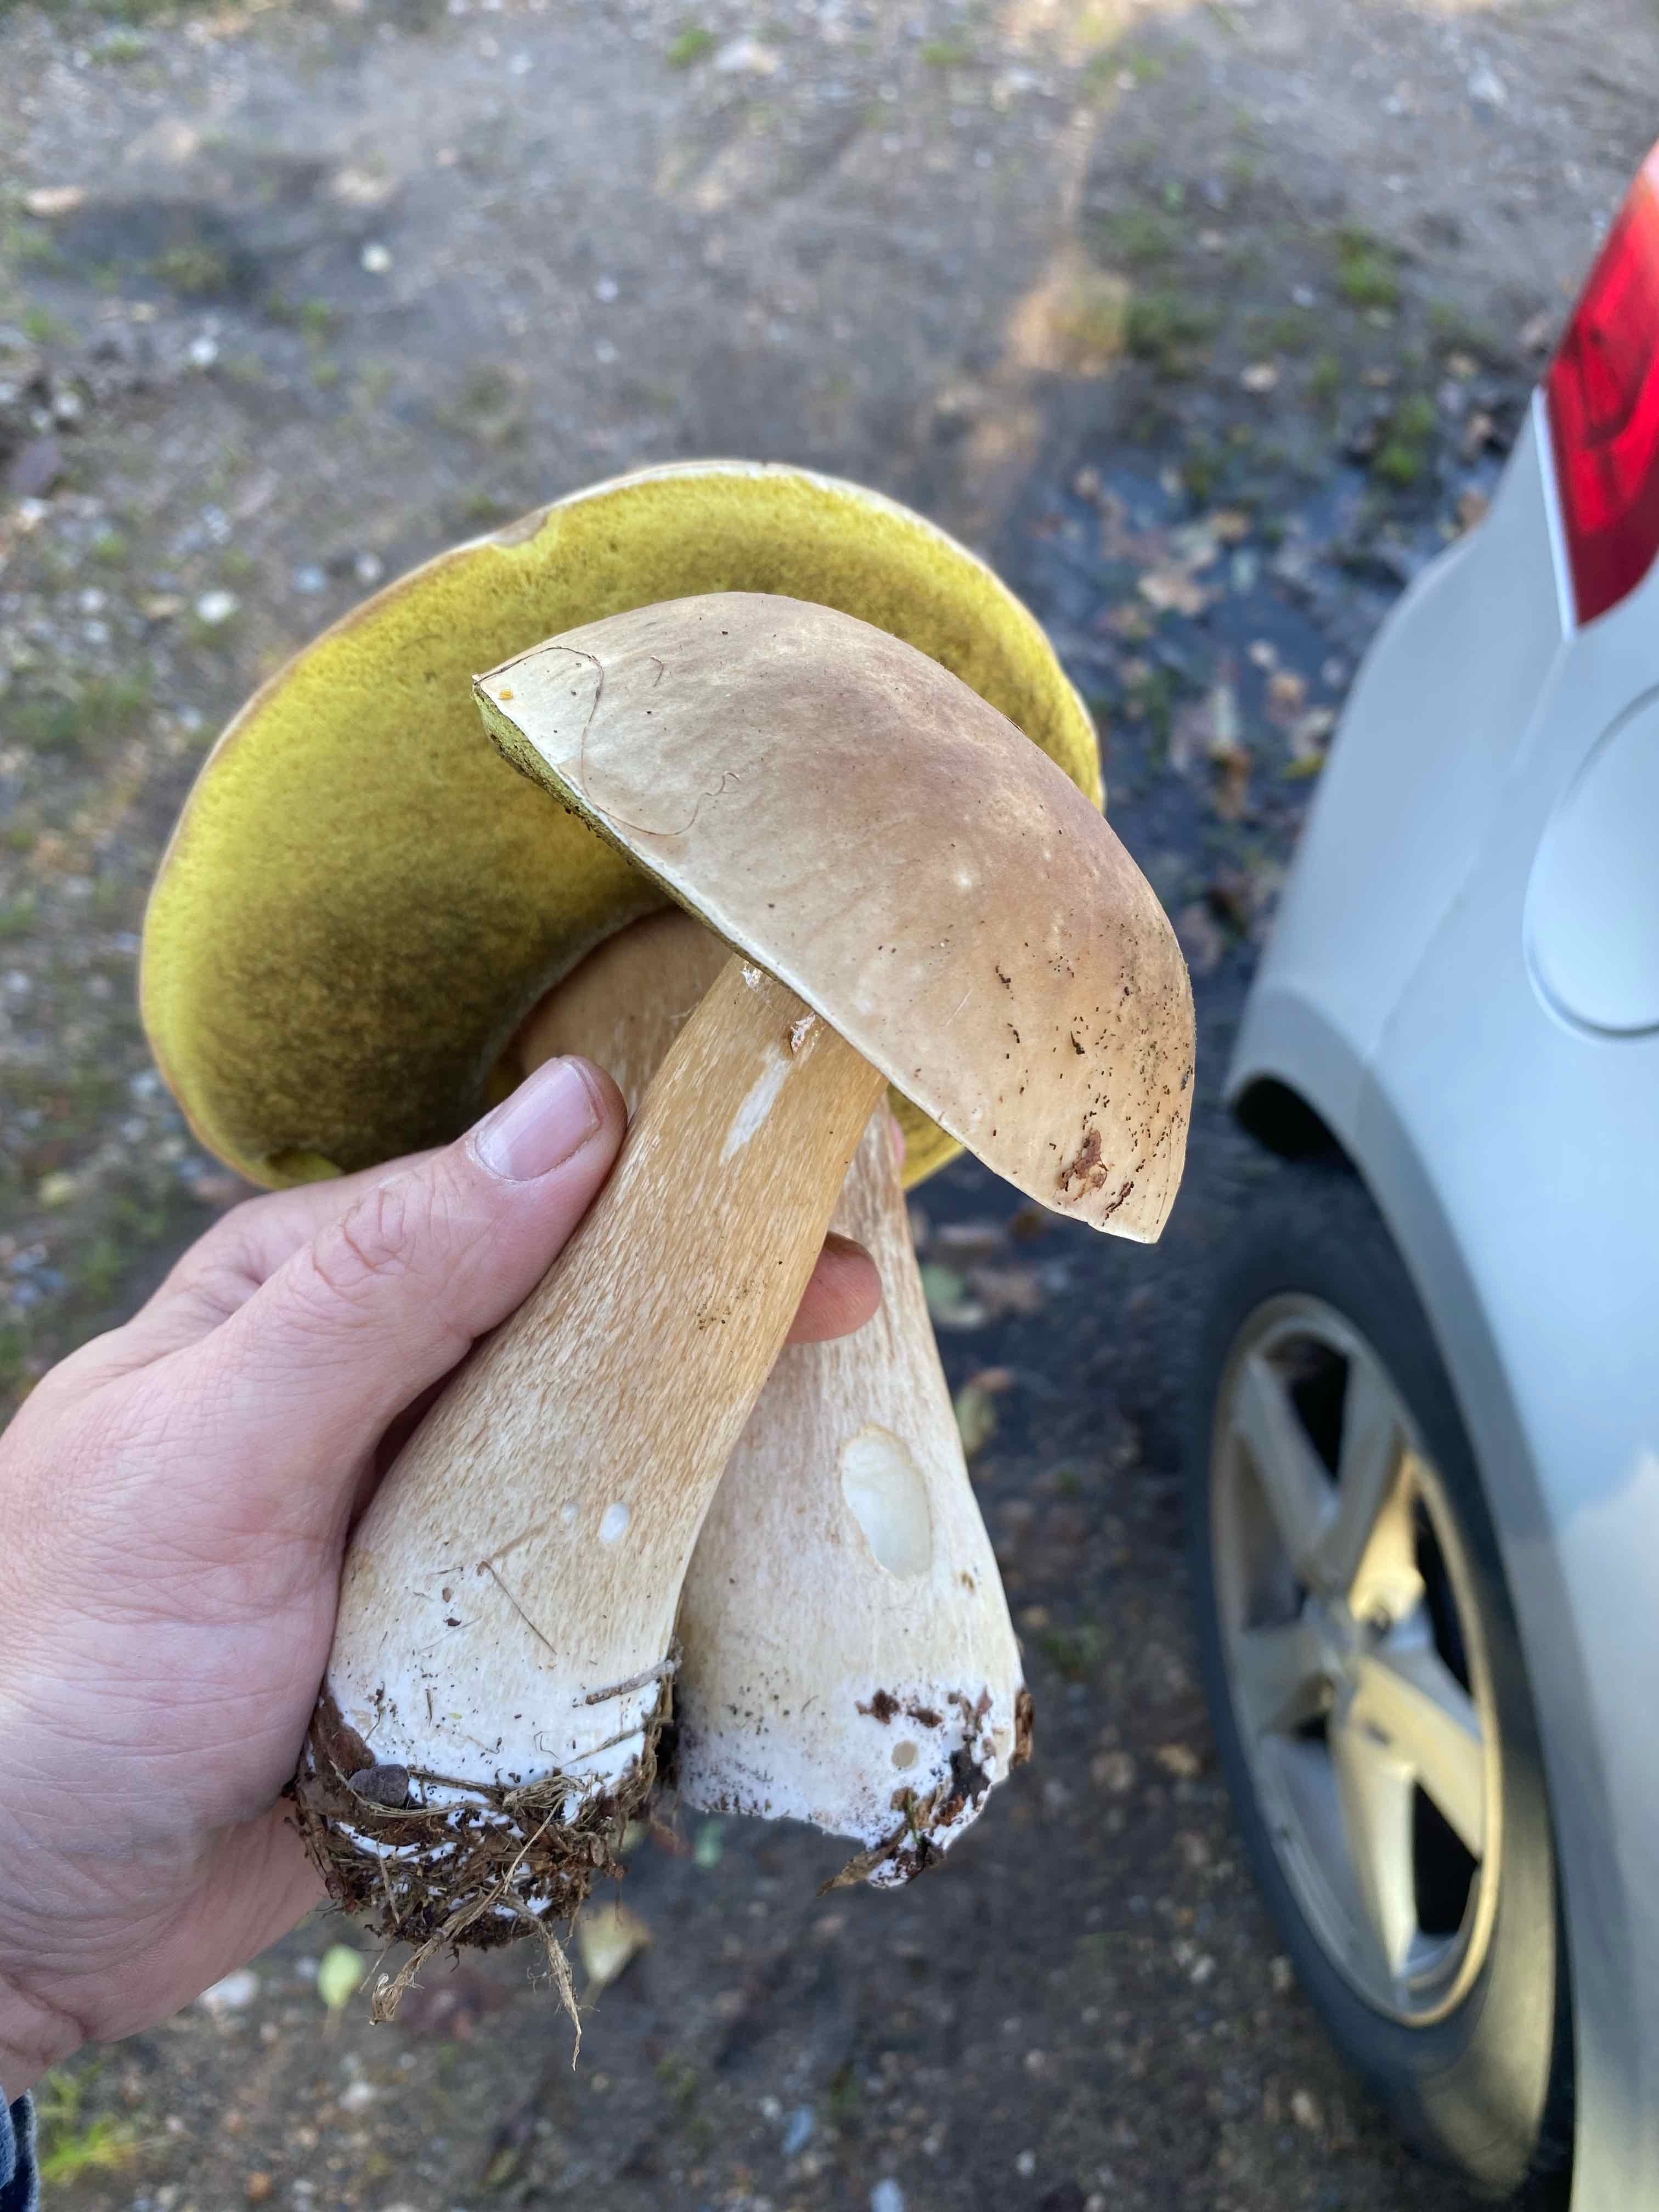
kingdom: Fungi
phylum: Basidiomycota
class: Agaricomycetes
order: Boletales
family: Boletaceae
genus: Boletus
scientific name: Boletus edulis
